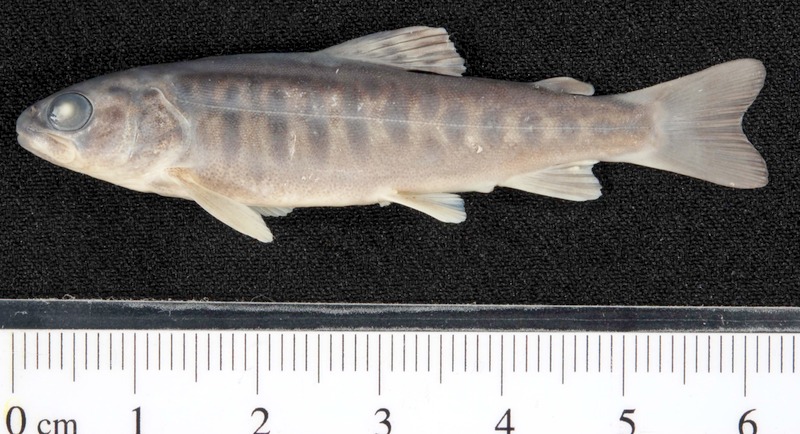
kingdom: Animalia
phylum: Chordata
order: Salmoniformes
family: Salmonidae
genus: Oncorhynchus
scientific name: Oncorhynchus mykiss
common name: Rainbow trout
